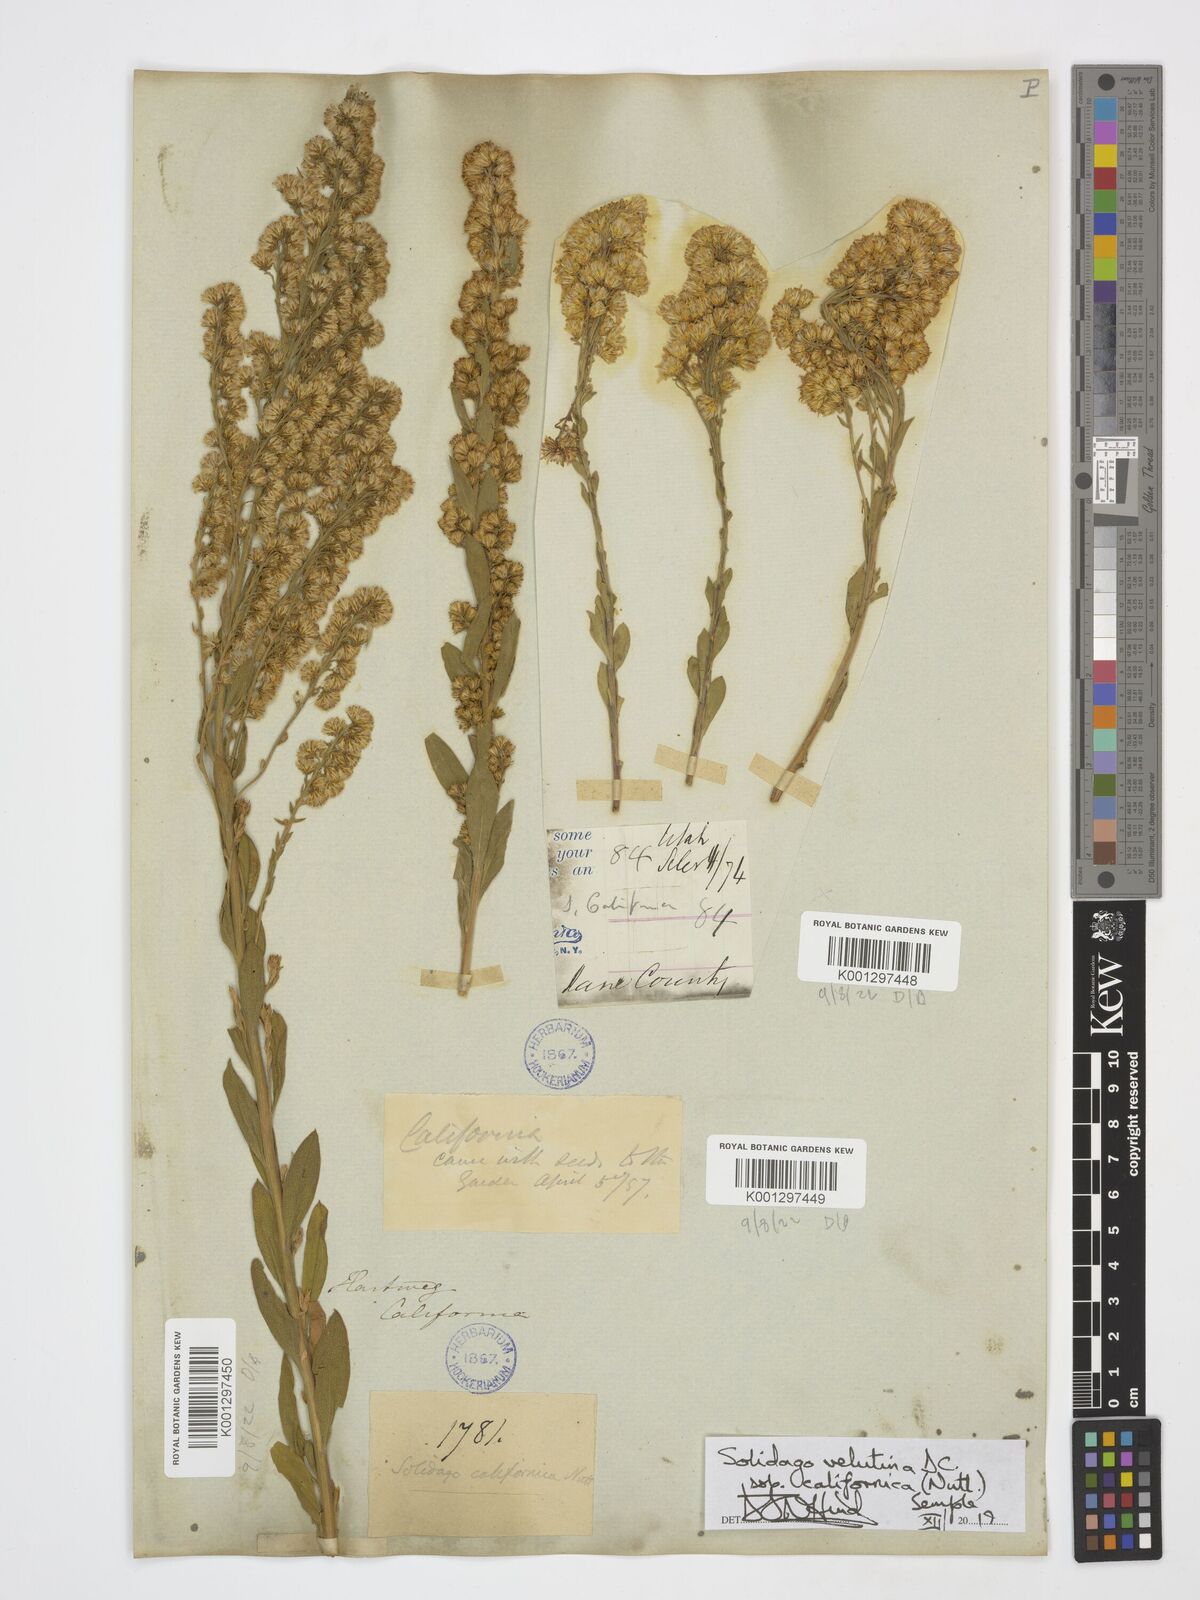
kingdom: Plantae
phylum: Tracheophyta
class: Magnoliopsida
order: Asterales
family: Asteraceae
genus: Solidago
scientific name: Solidago velutina
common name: Three-nerve goldenrod
